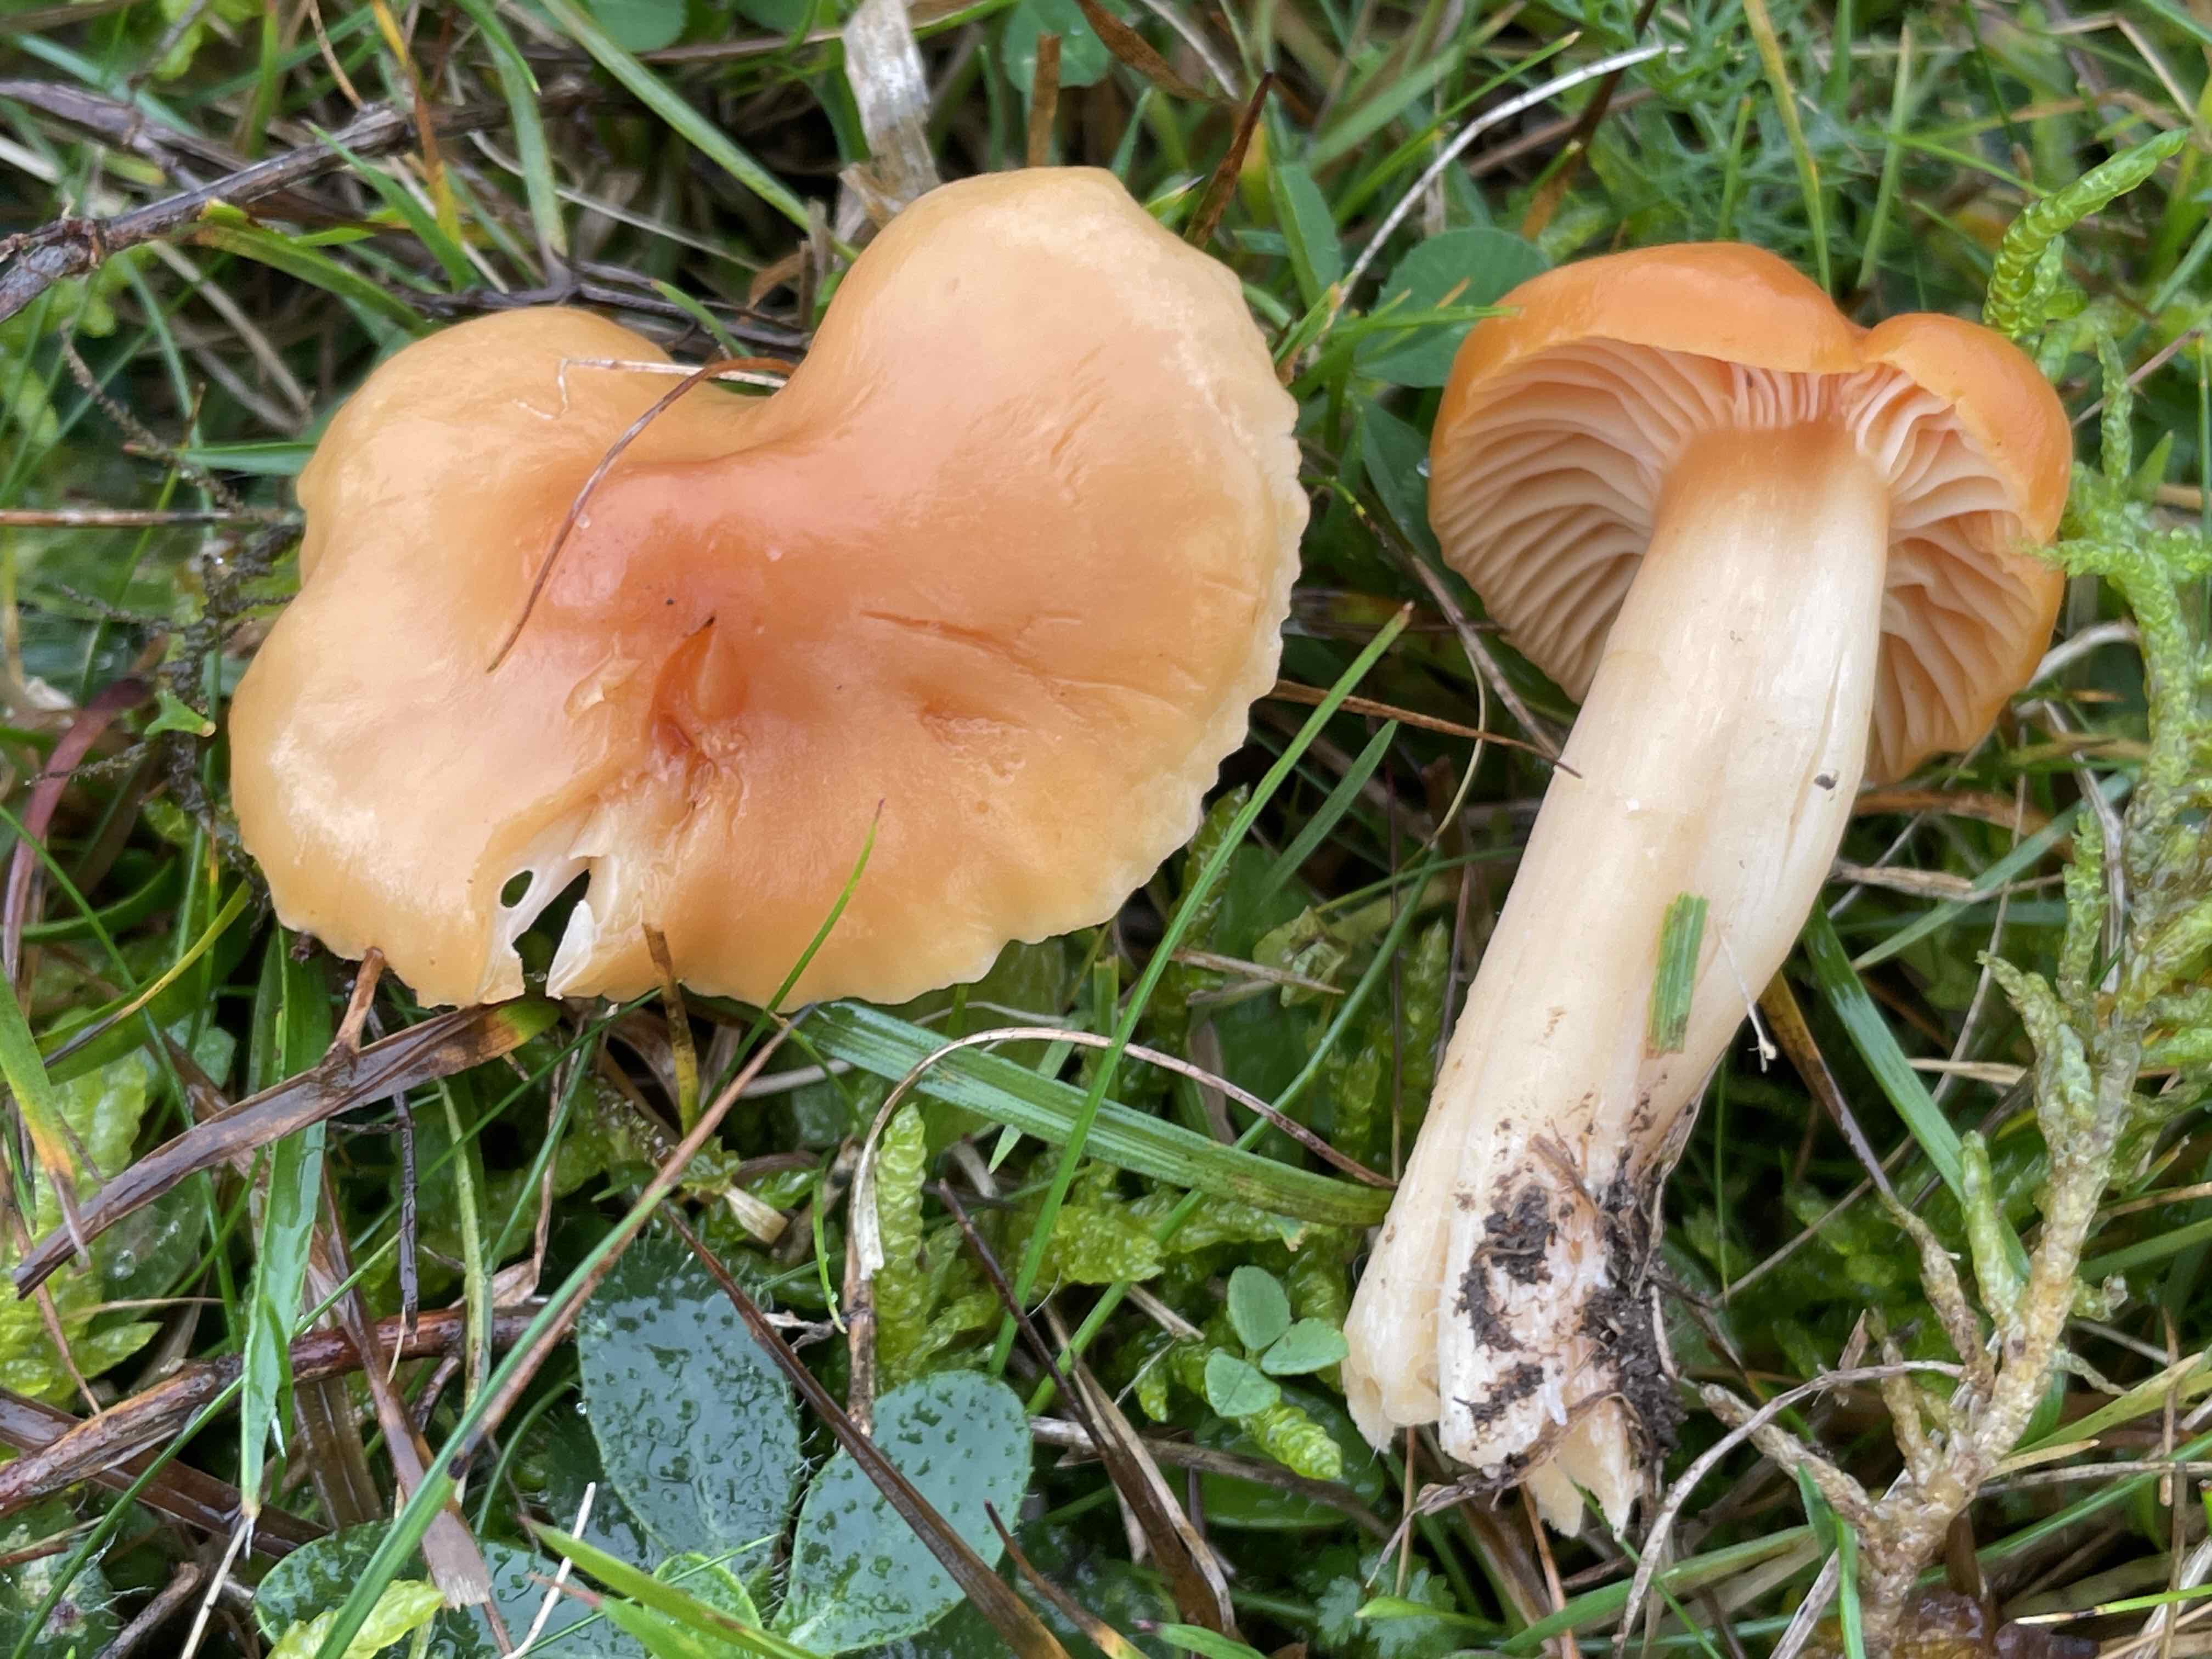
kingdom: Fungi
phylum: Basidiomycota
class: Agaricomycetes
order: Agaricales
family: Hygrophoraceae
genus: Cuphophyllus
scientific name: Cuphophyllus pratensis
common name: eng-vokshat
